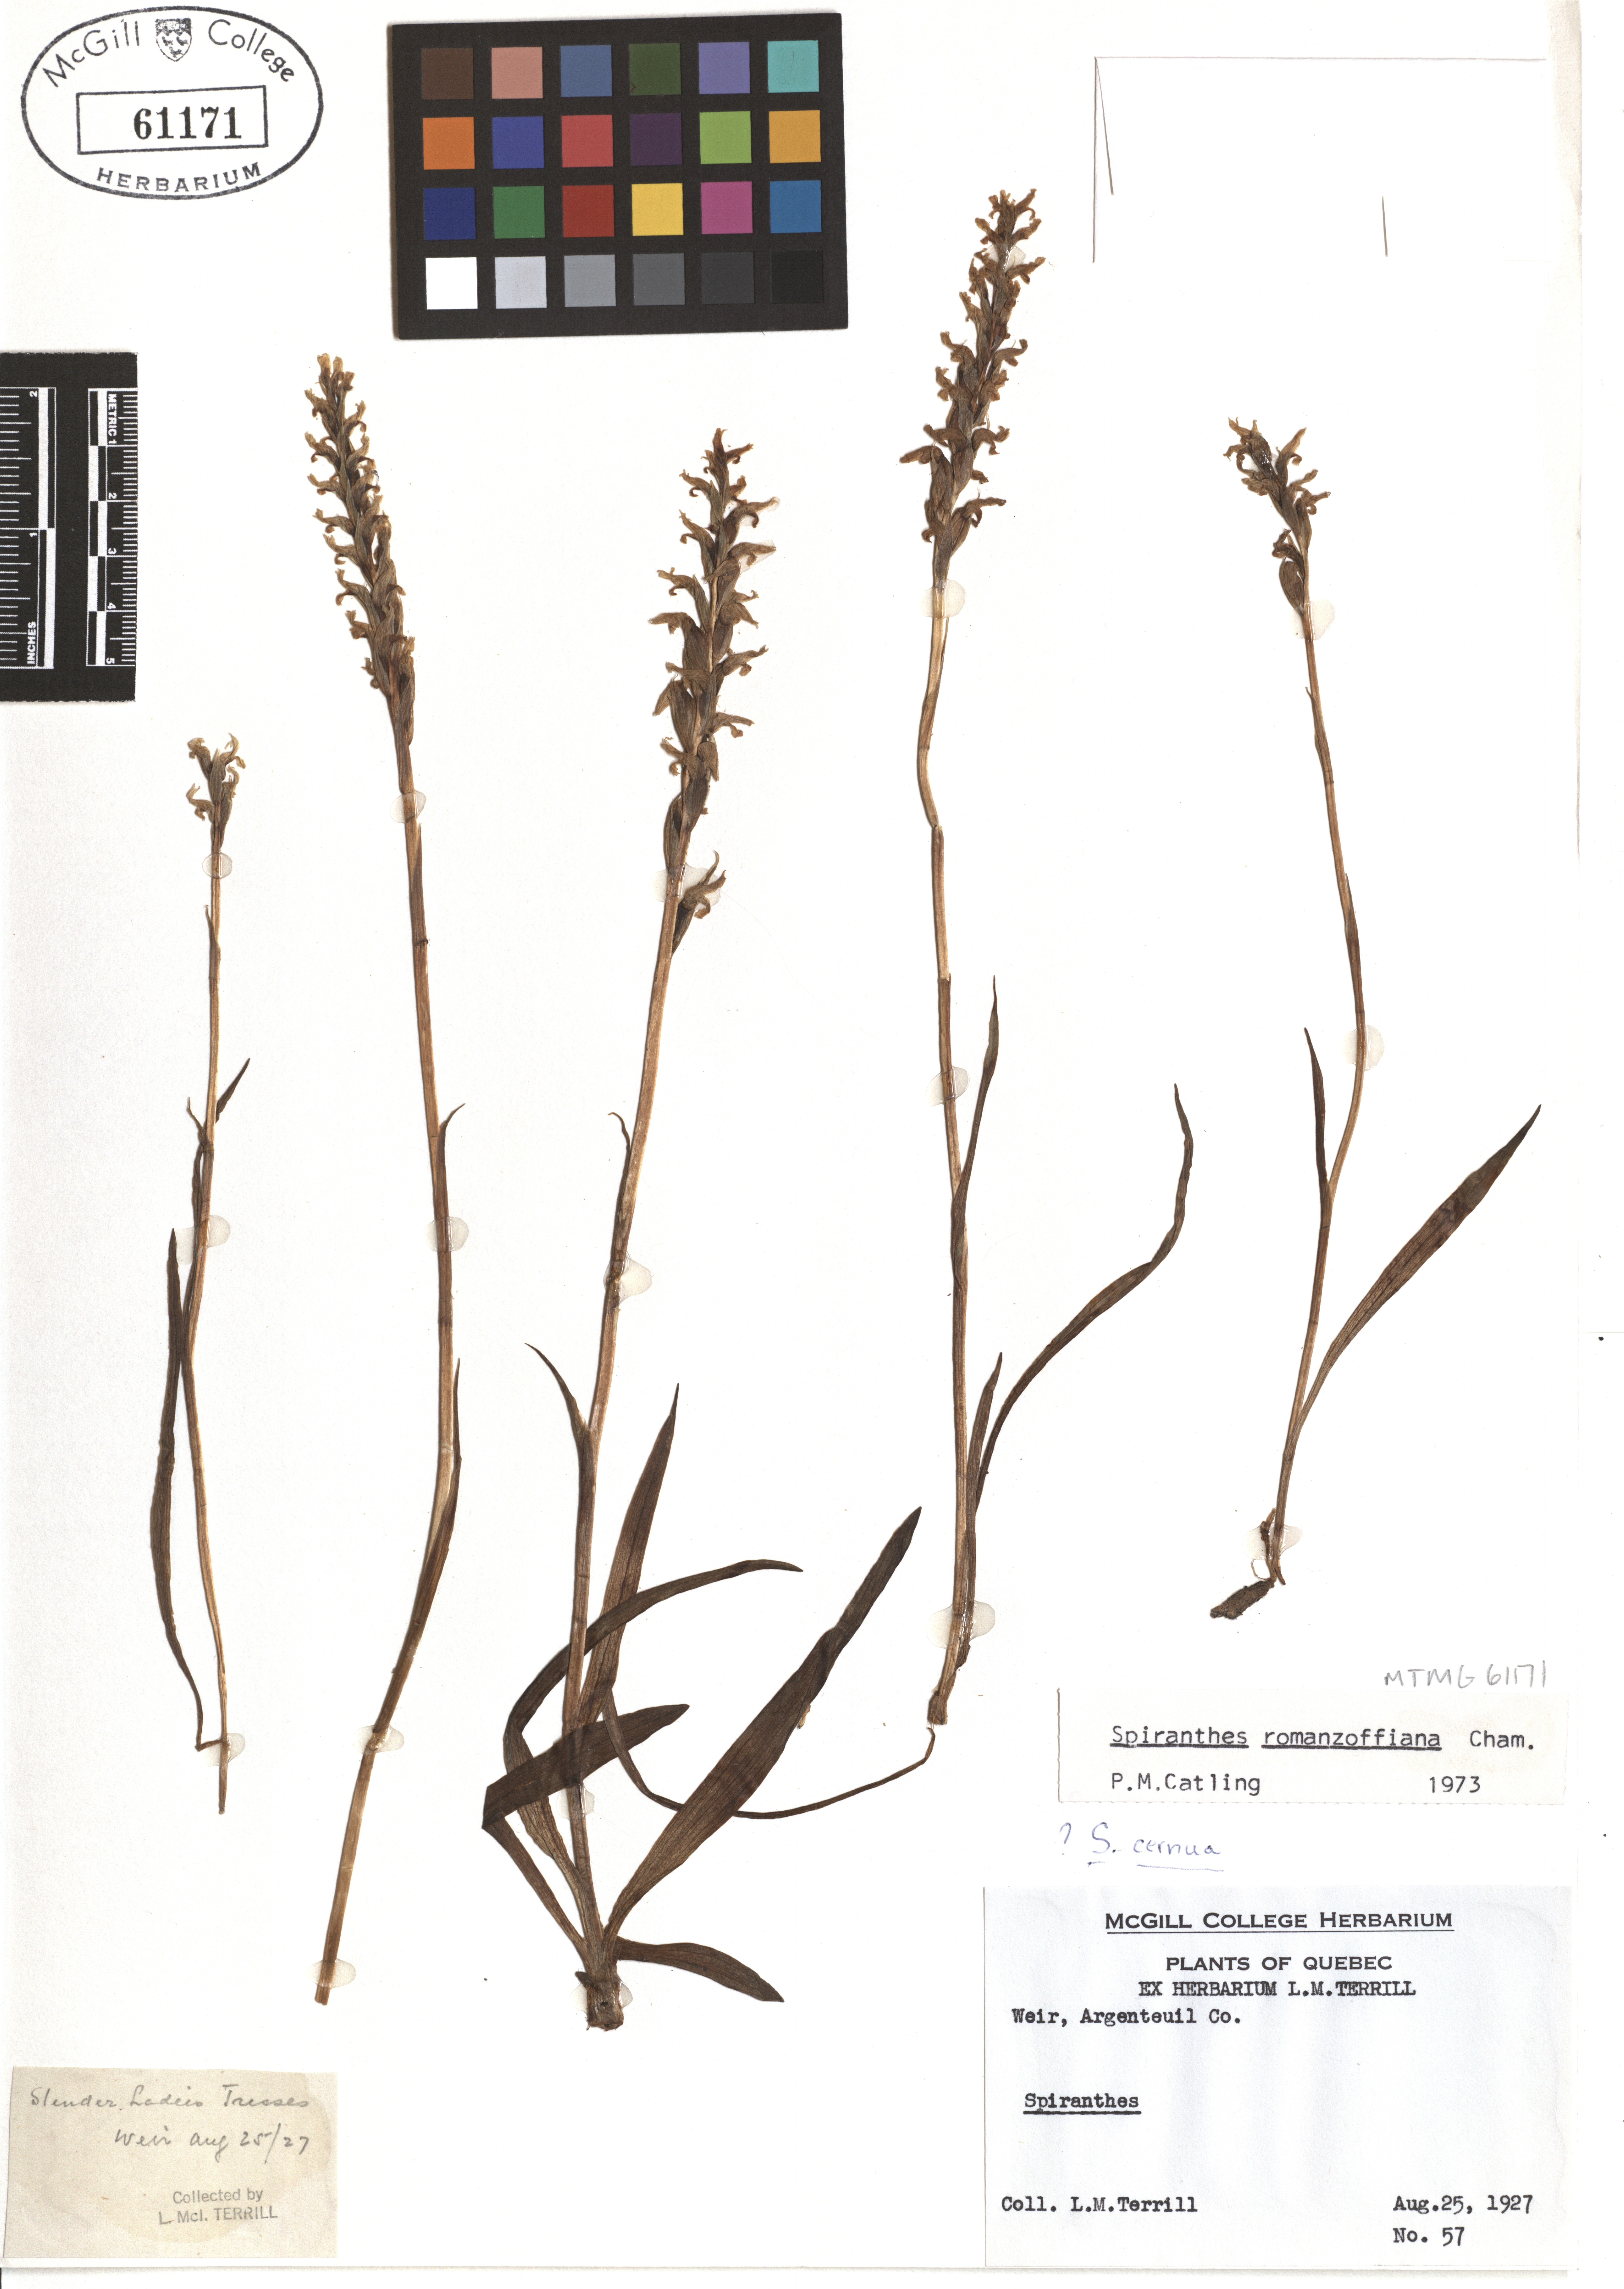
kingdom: Plantae
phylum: Tracheophyta
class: Liliopsida
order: Asparagales
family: Orchidaceae
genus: Spiranthes
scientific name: Spiranthes romanzoffiana
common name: Irish lady's-tresses
